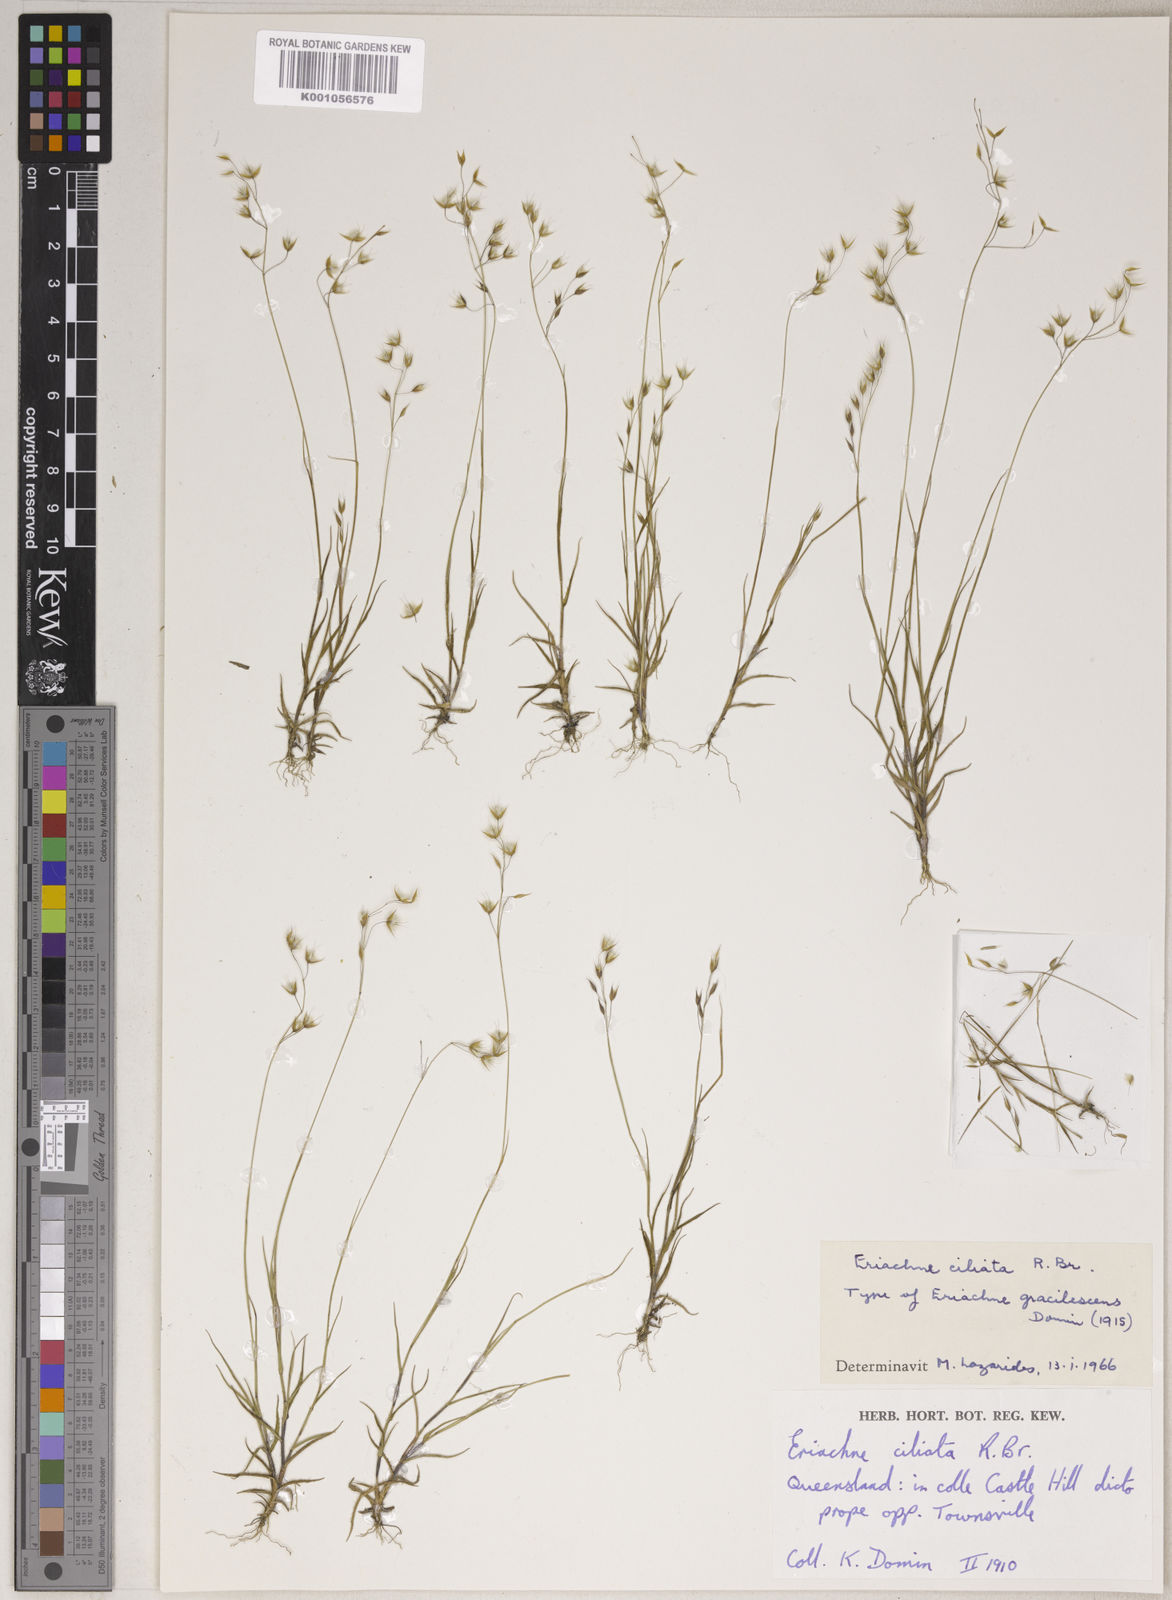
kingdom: Plantae
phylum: Tracheophyta
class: Liliopsida
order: Poales
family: Poaceae
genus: Eriachne
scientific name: Eriachne ciliata
